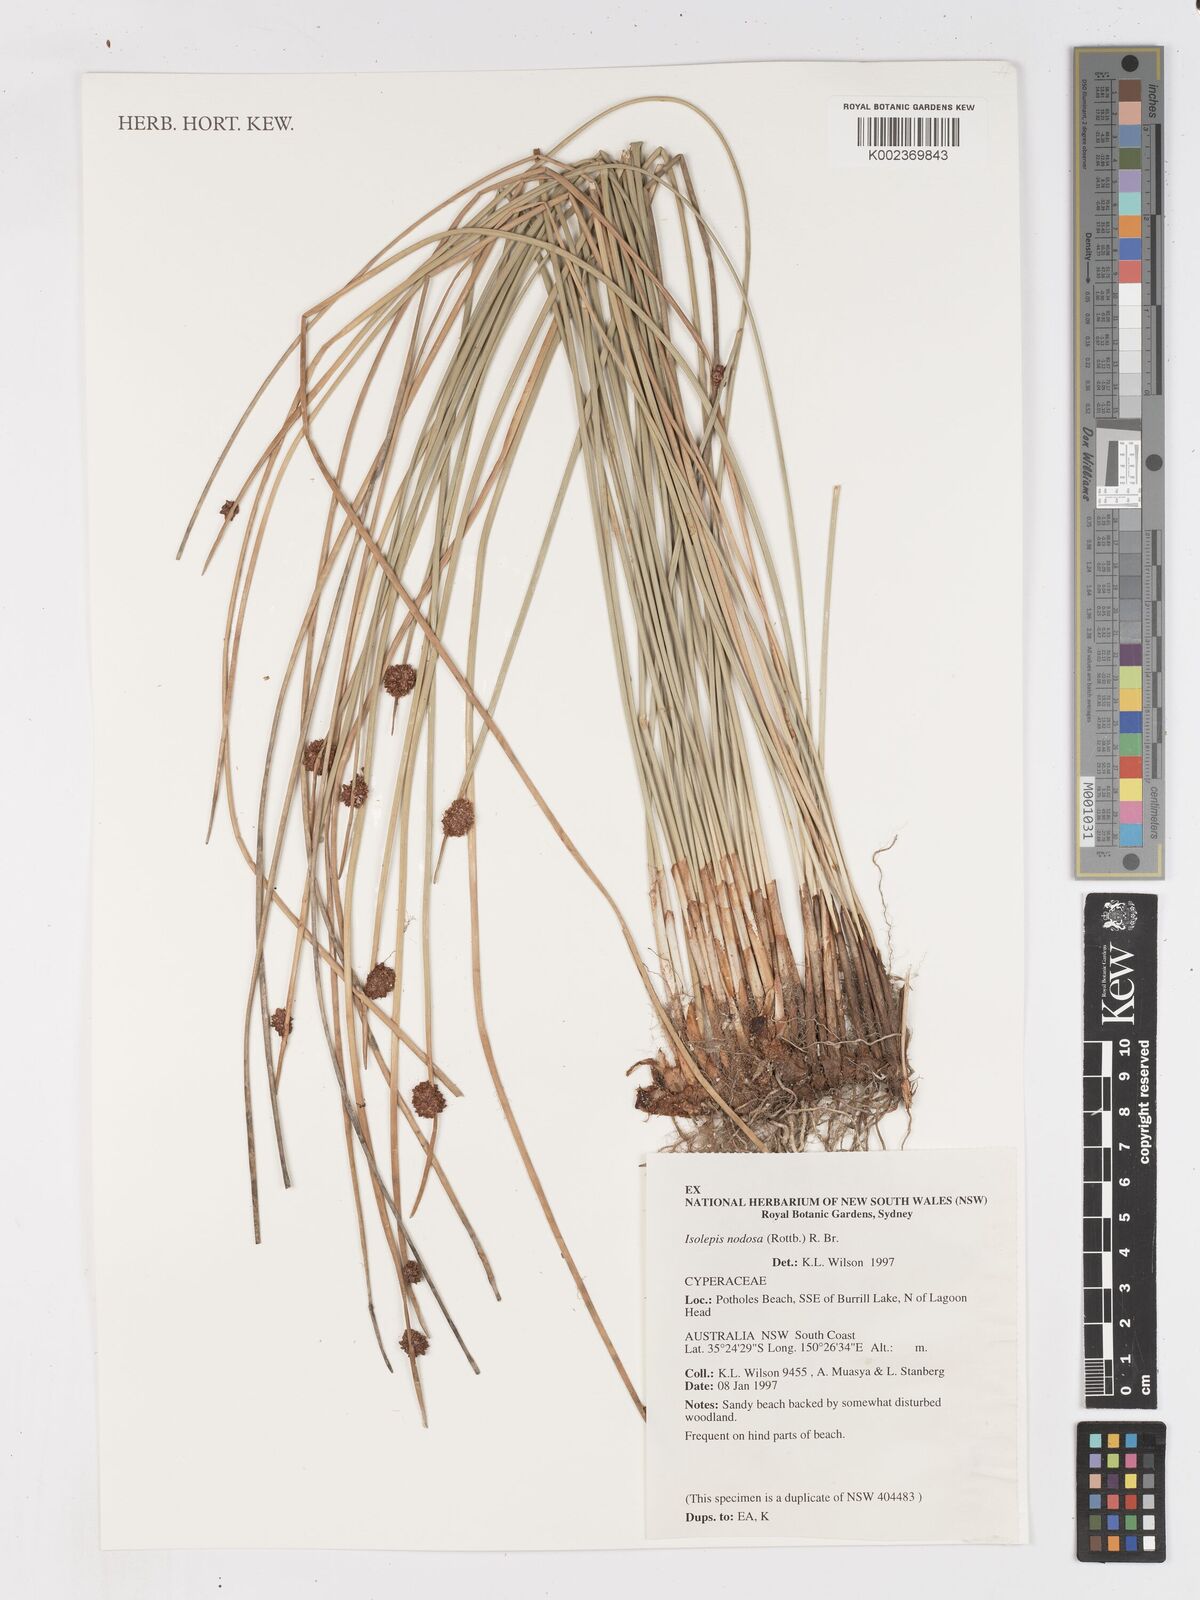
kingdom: Plantae
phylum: Tracheophyta
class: Liliopsida
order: Poales
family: Cyperaceae
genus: Ficinia
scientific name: Ficinia nodosa
